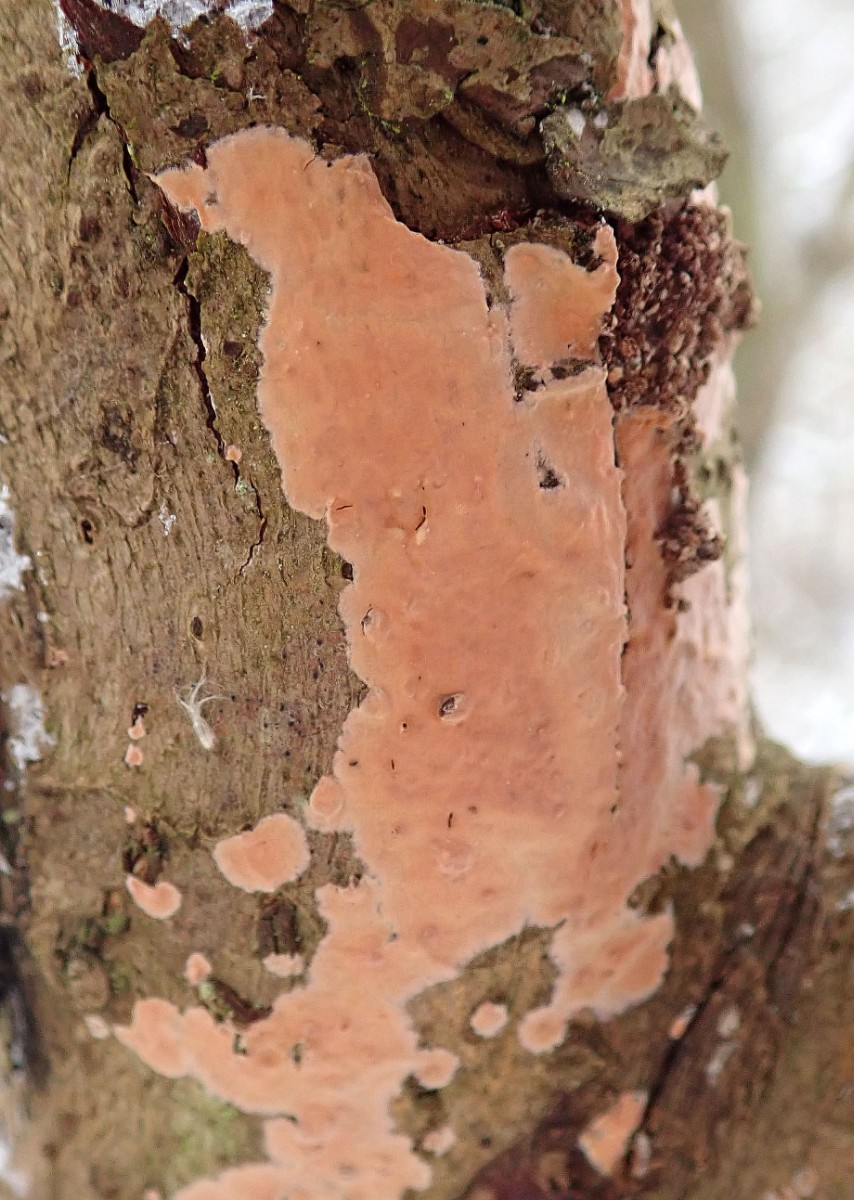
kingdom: Fungi
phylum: Basidiomycota
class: Agaricomycetes
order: Russulales
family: Peniophoraceae
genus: Peniophora
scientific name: Peniophora incarnata
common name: laksefarvet voksskind
